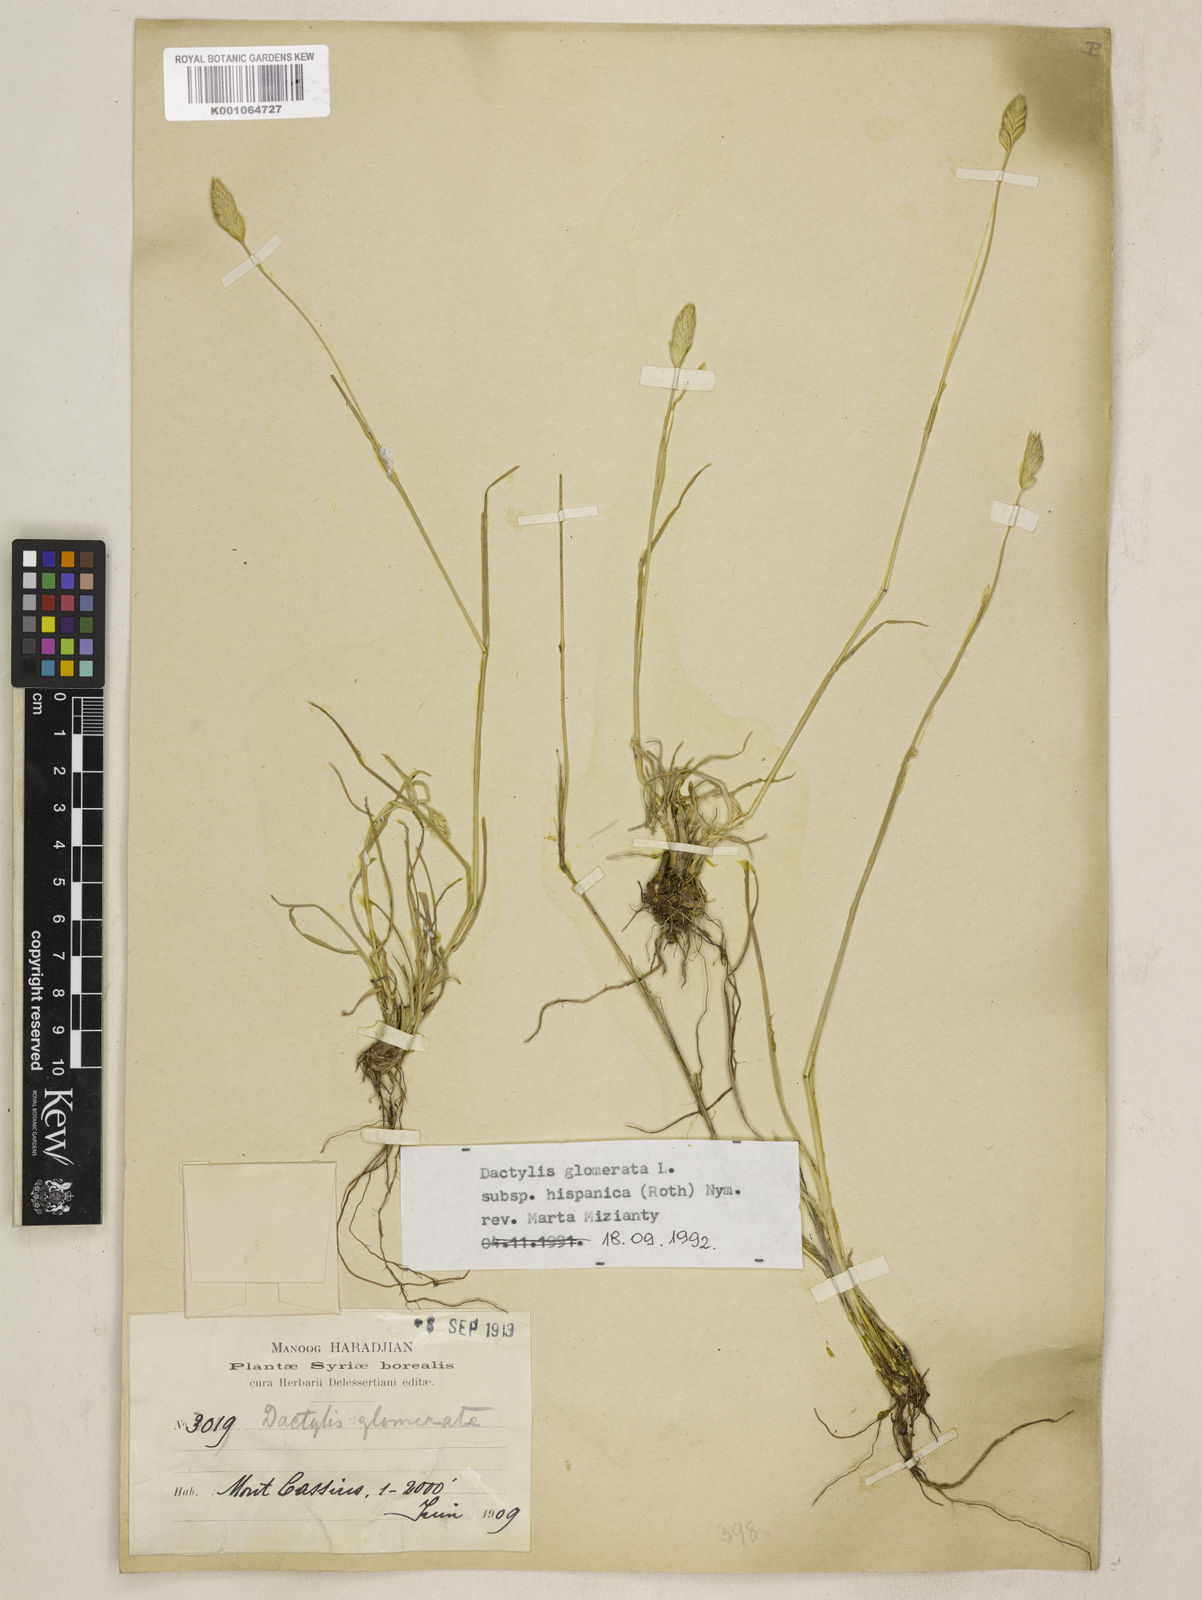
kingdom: Plantae
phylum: Tracheophyta
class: Liliopsida
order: Poales
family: Poaceae
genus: Dactylis
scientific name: Dactylis glomerata
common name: Orchardgrass
